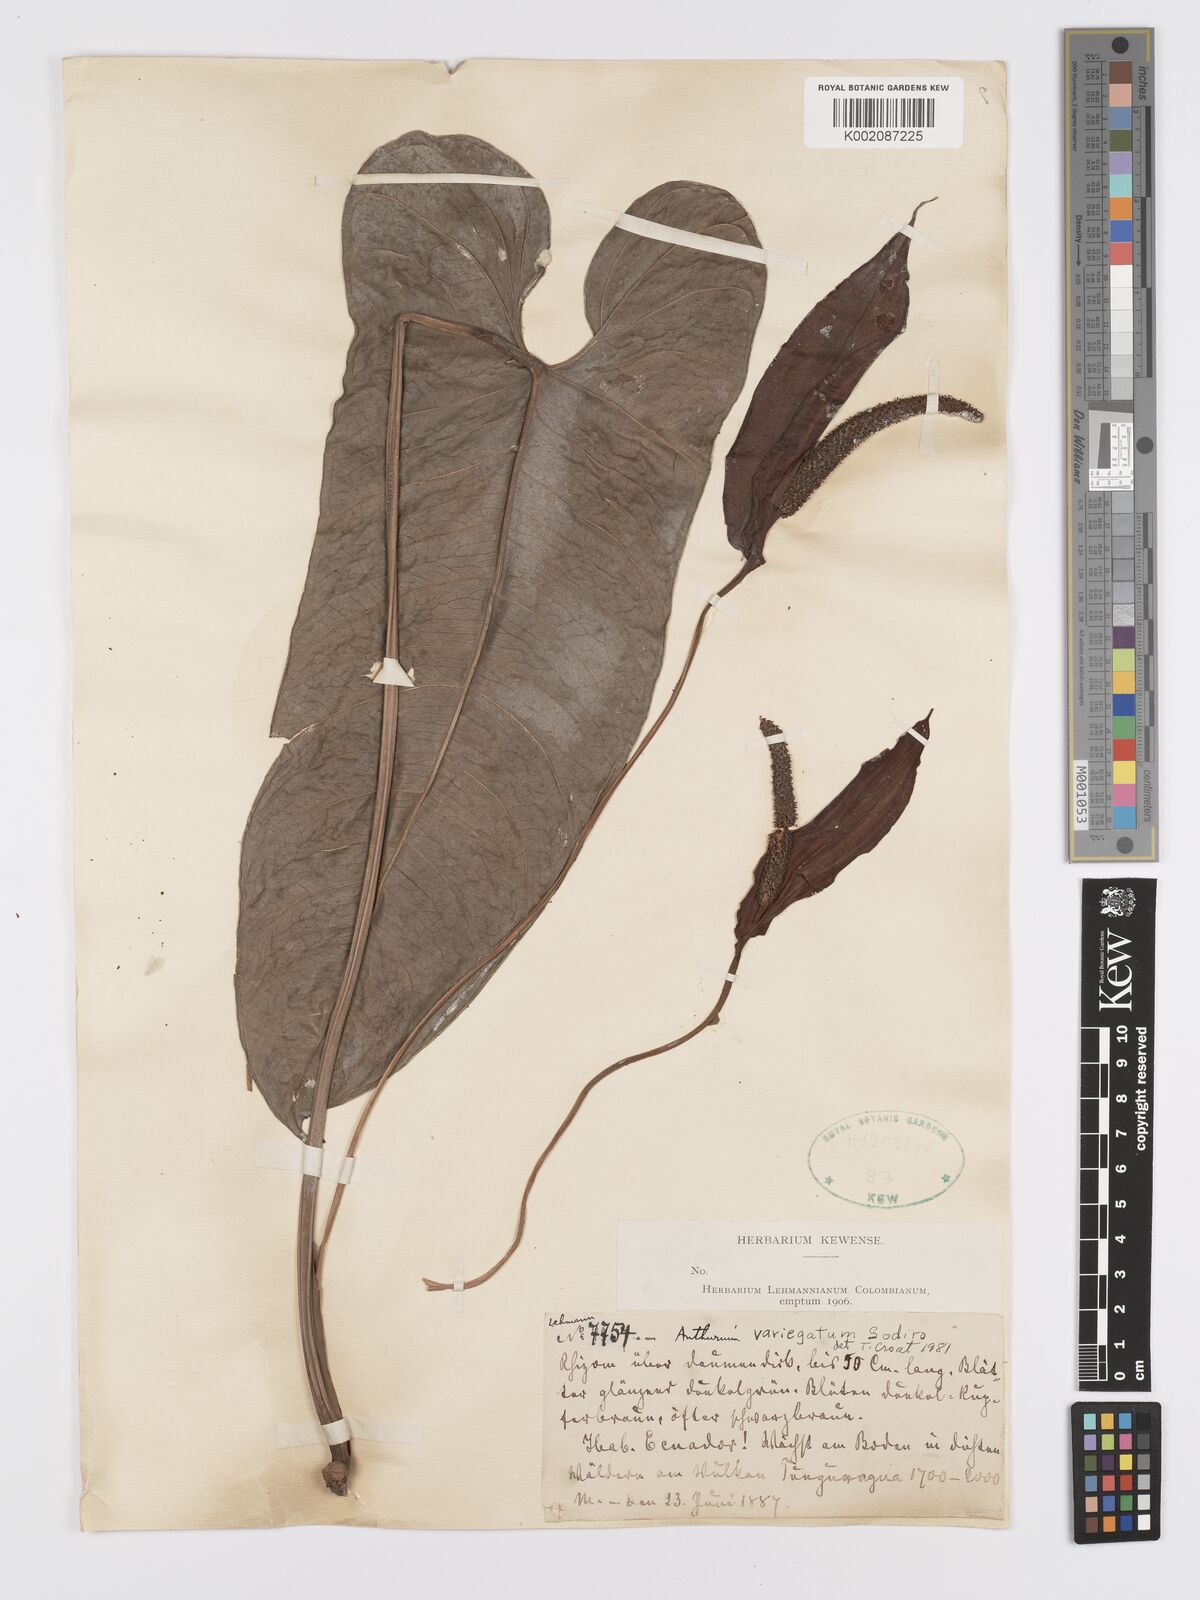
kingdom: Plantae
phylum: Tracheophyta
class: Liliopsida
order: Alismatales
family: Araceae
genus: Anthurium
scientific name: Anthurium variegatum
